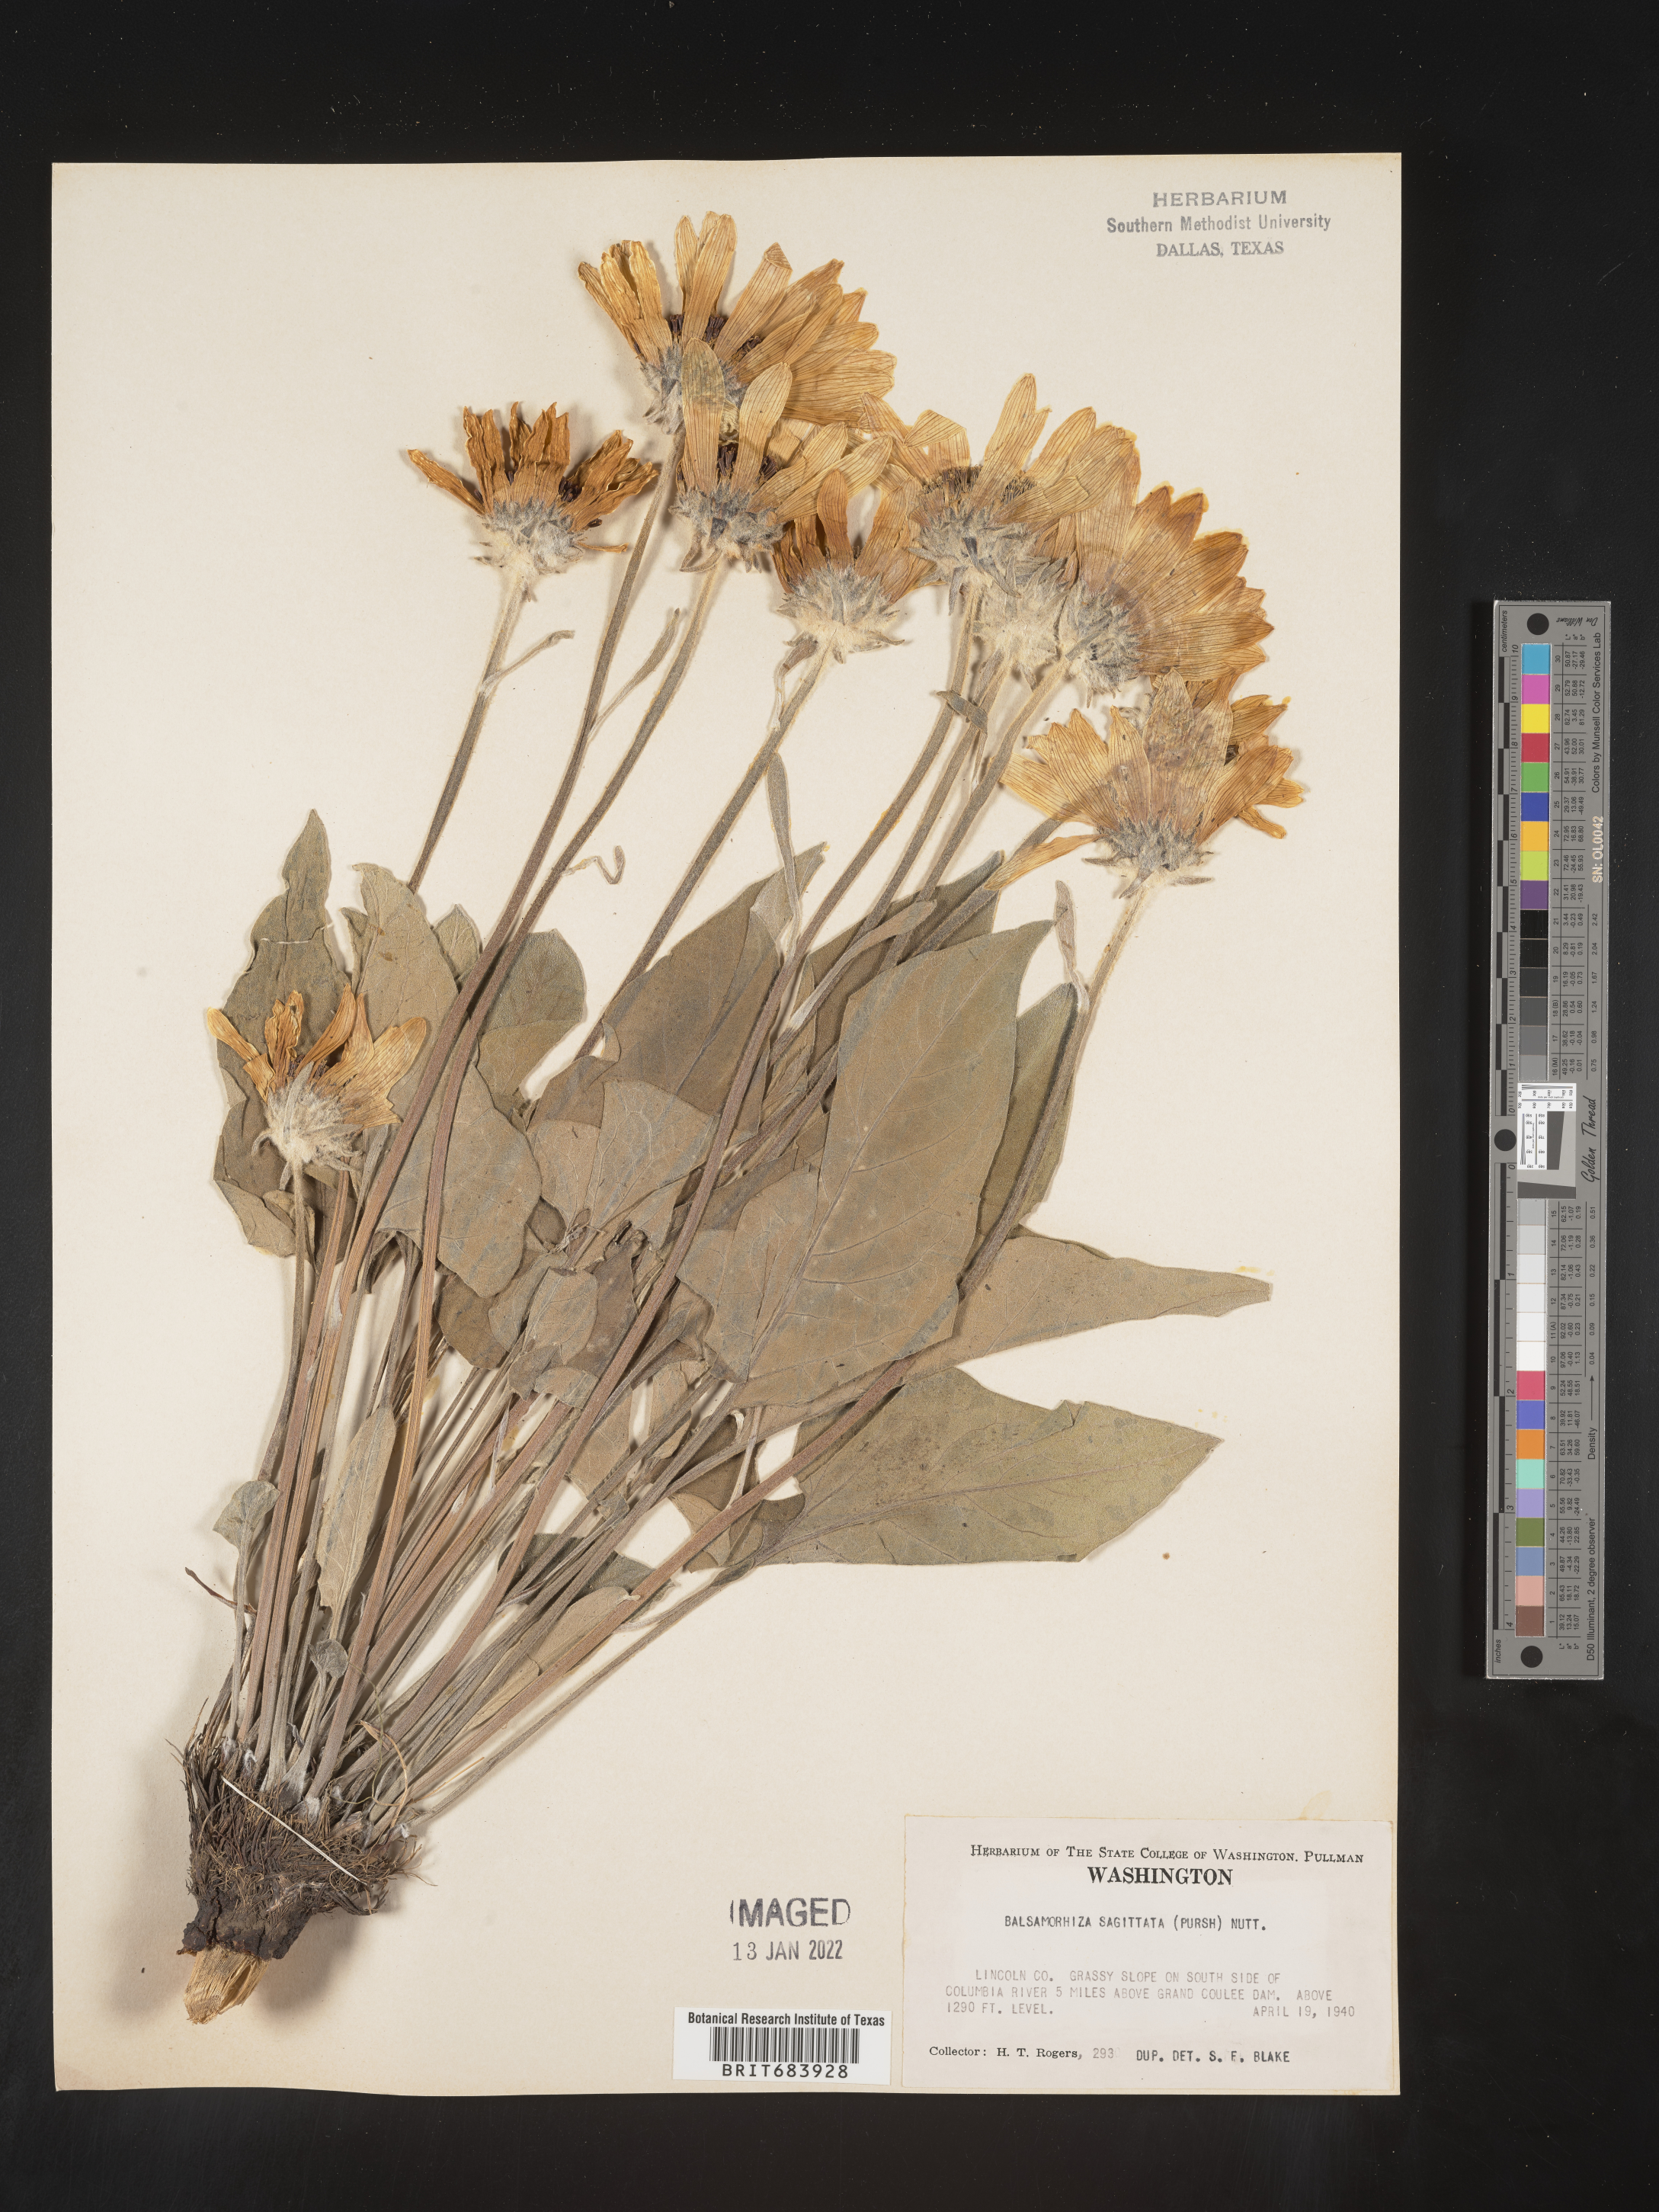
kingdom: Plantae
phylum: Tracheophyta
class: Magnoliopsida
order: Asterales
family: Asteraceae
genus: Wyethia
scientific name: Wyethia sagittata
